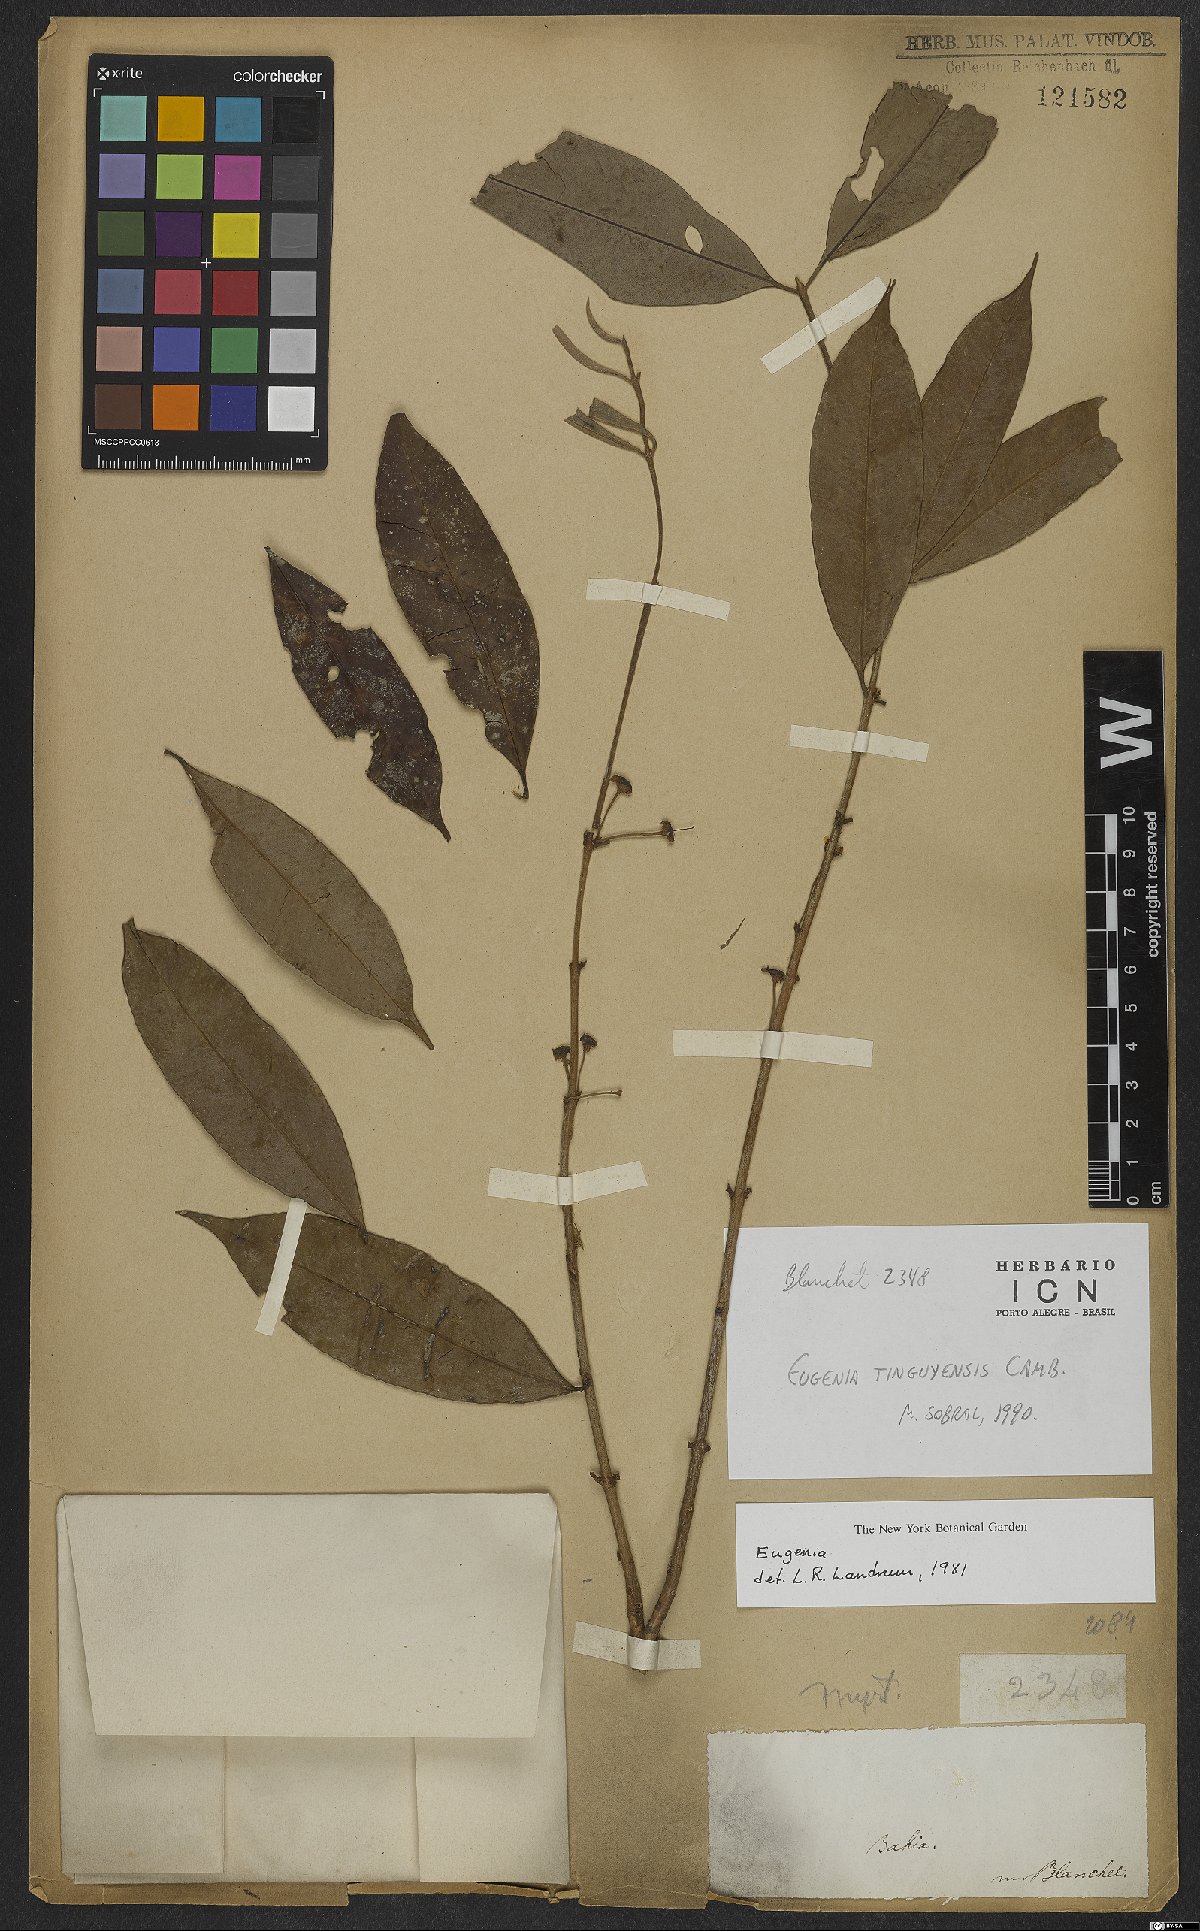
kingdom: Plantae
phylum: Tracheophyta
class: Magnoliopsida
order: Myrtales
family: Myrtaceae
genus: Eugenia
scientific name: Eugenia pisiformis
